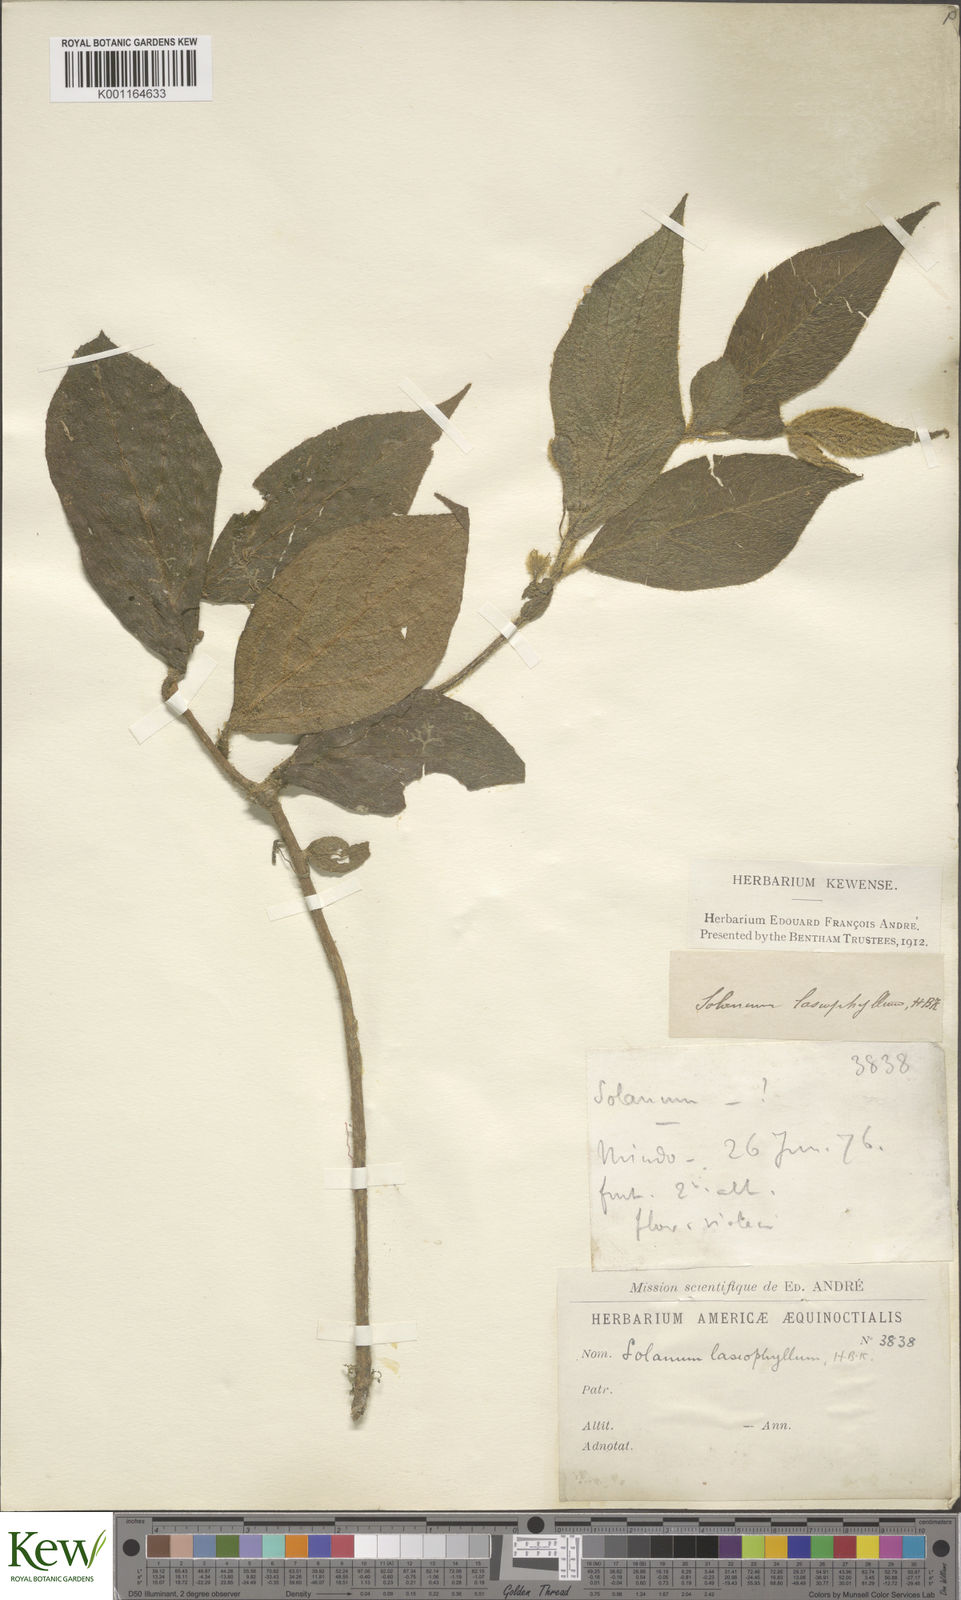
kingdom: Plantae
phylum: Tracheophyta
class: Magnoliopsida
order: Solanales
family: Solanaceae
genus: Lycianthes
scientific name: Lycianthes medusocalyx
